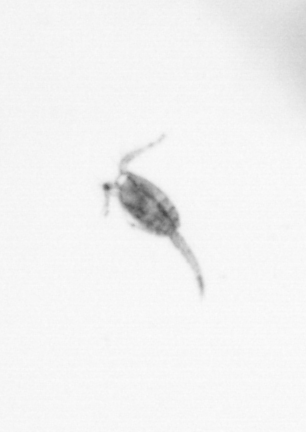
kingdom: Animalia
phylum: Arthropoda
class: Copepoda
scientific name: Copepoda
